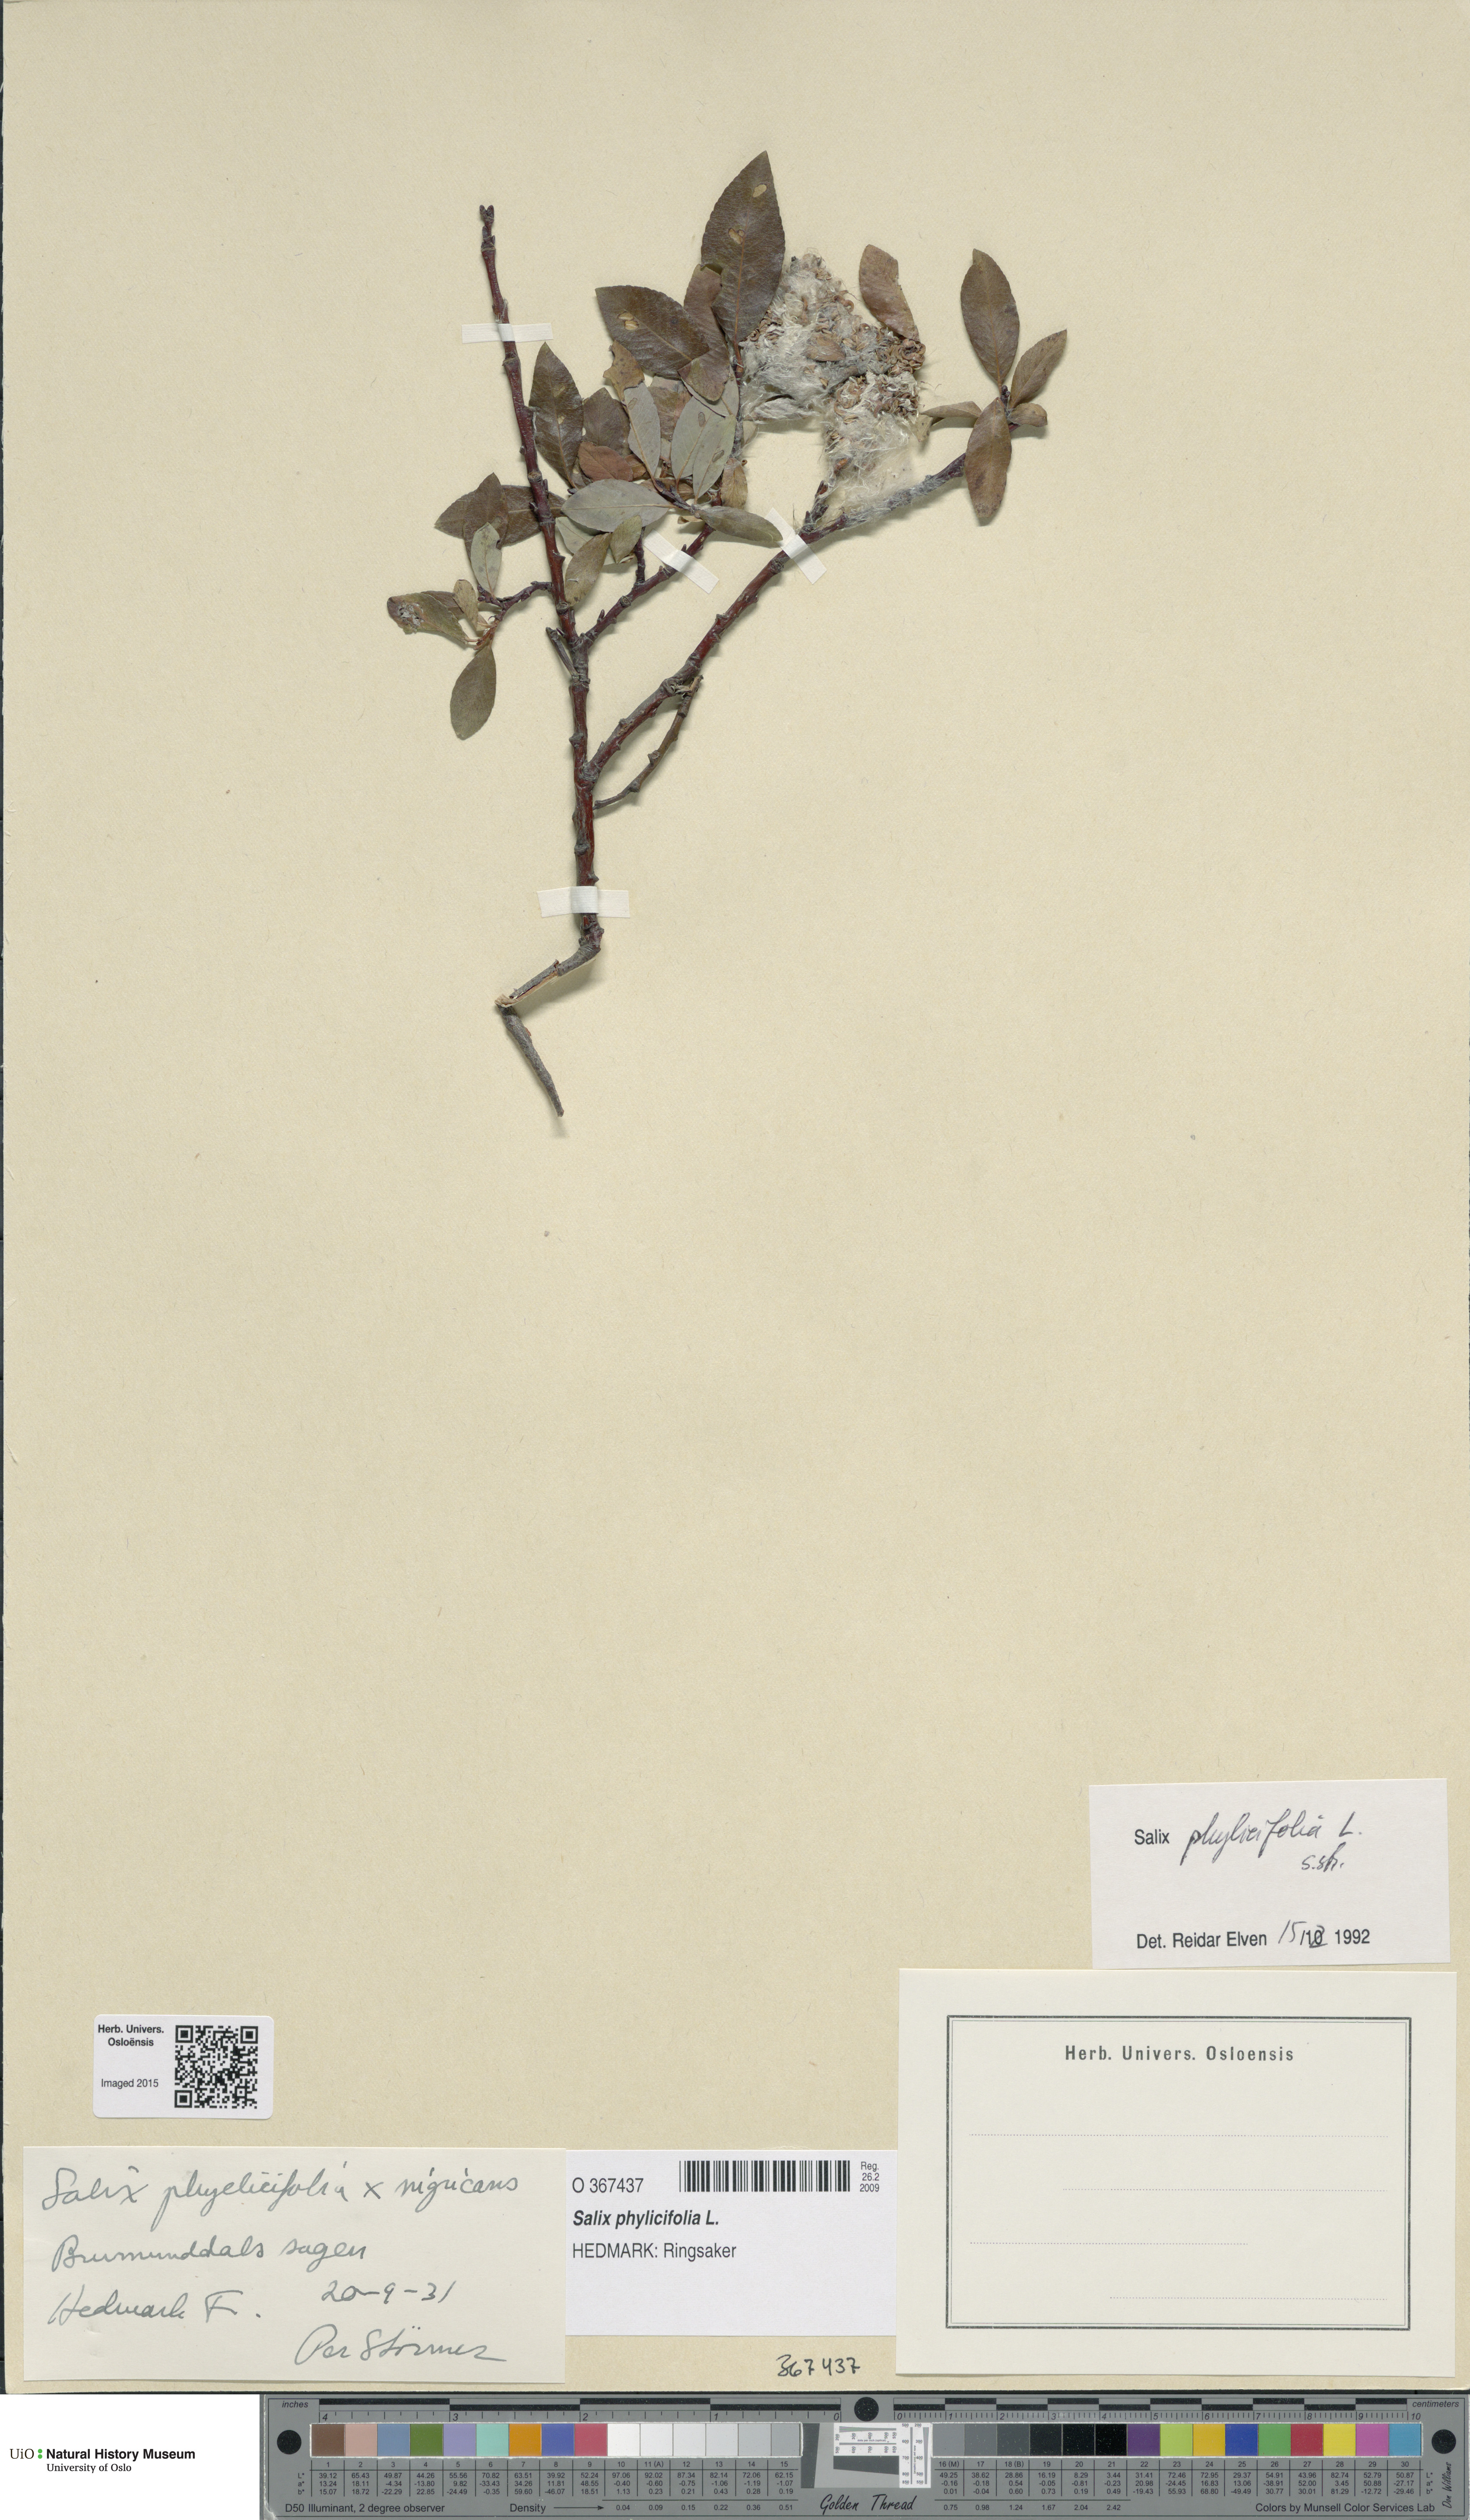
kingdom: Plantae
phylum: Tracheophyta
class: Magnoliopsida
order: Malpighiales
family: Salicaceae
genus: Salix
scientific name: Salix phylicifolia
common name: Tea-leaved willow
